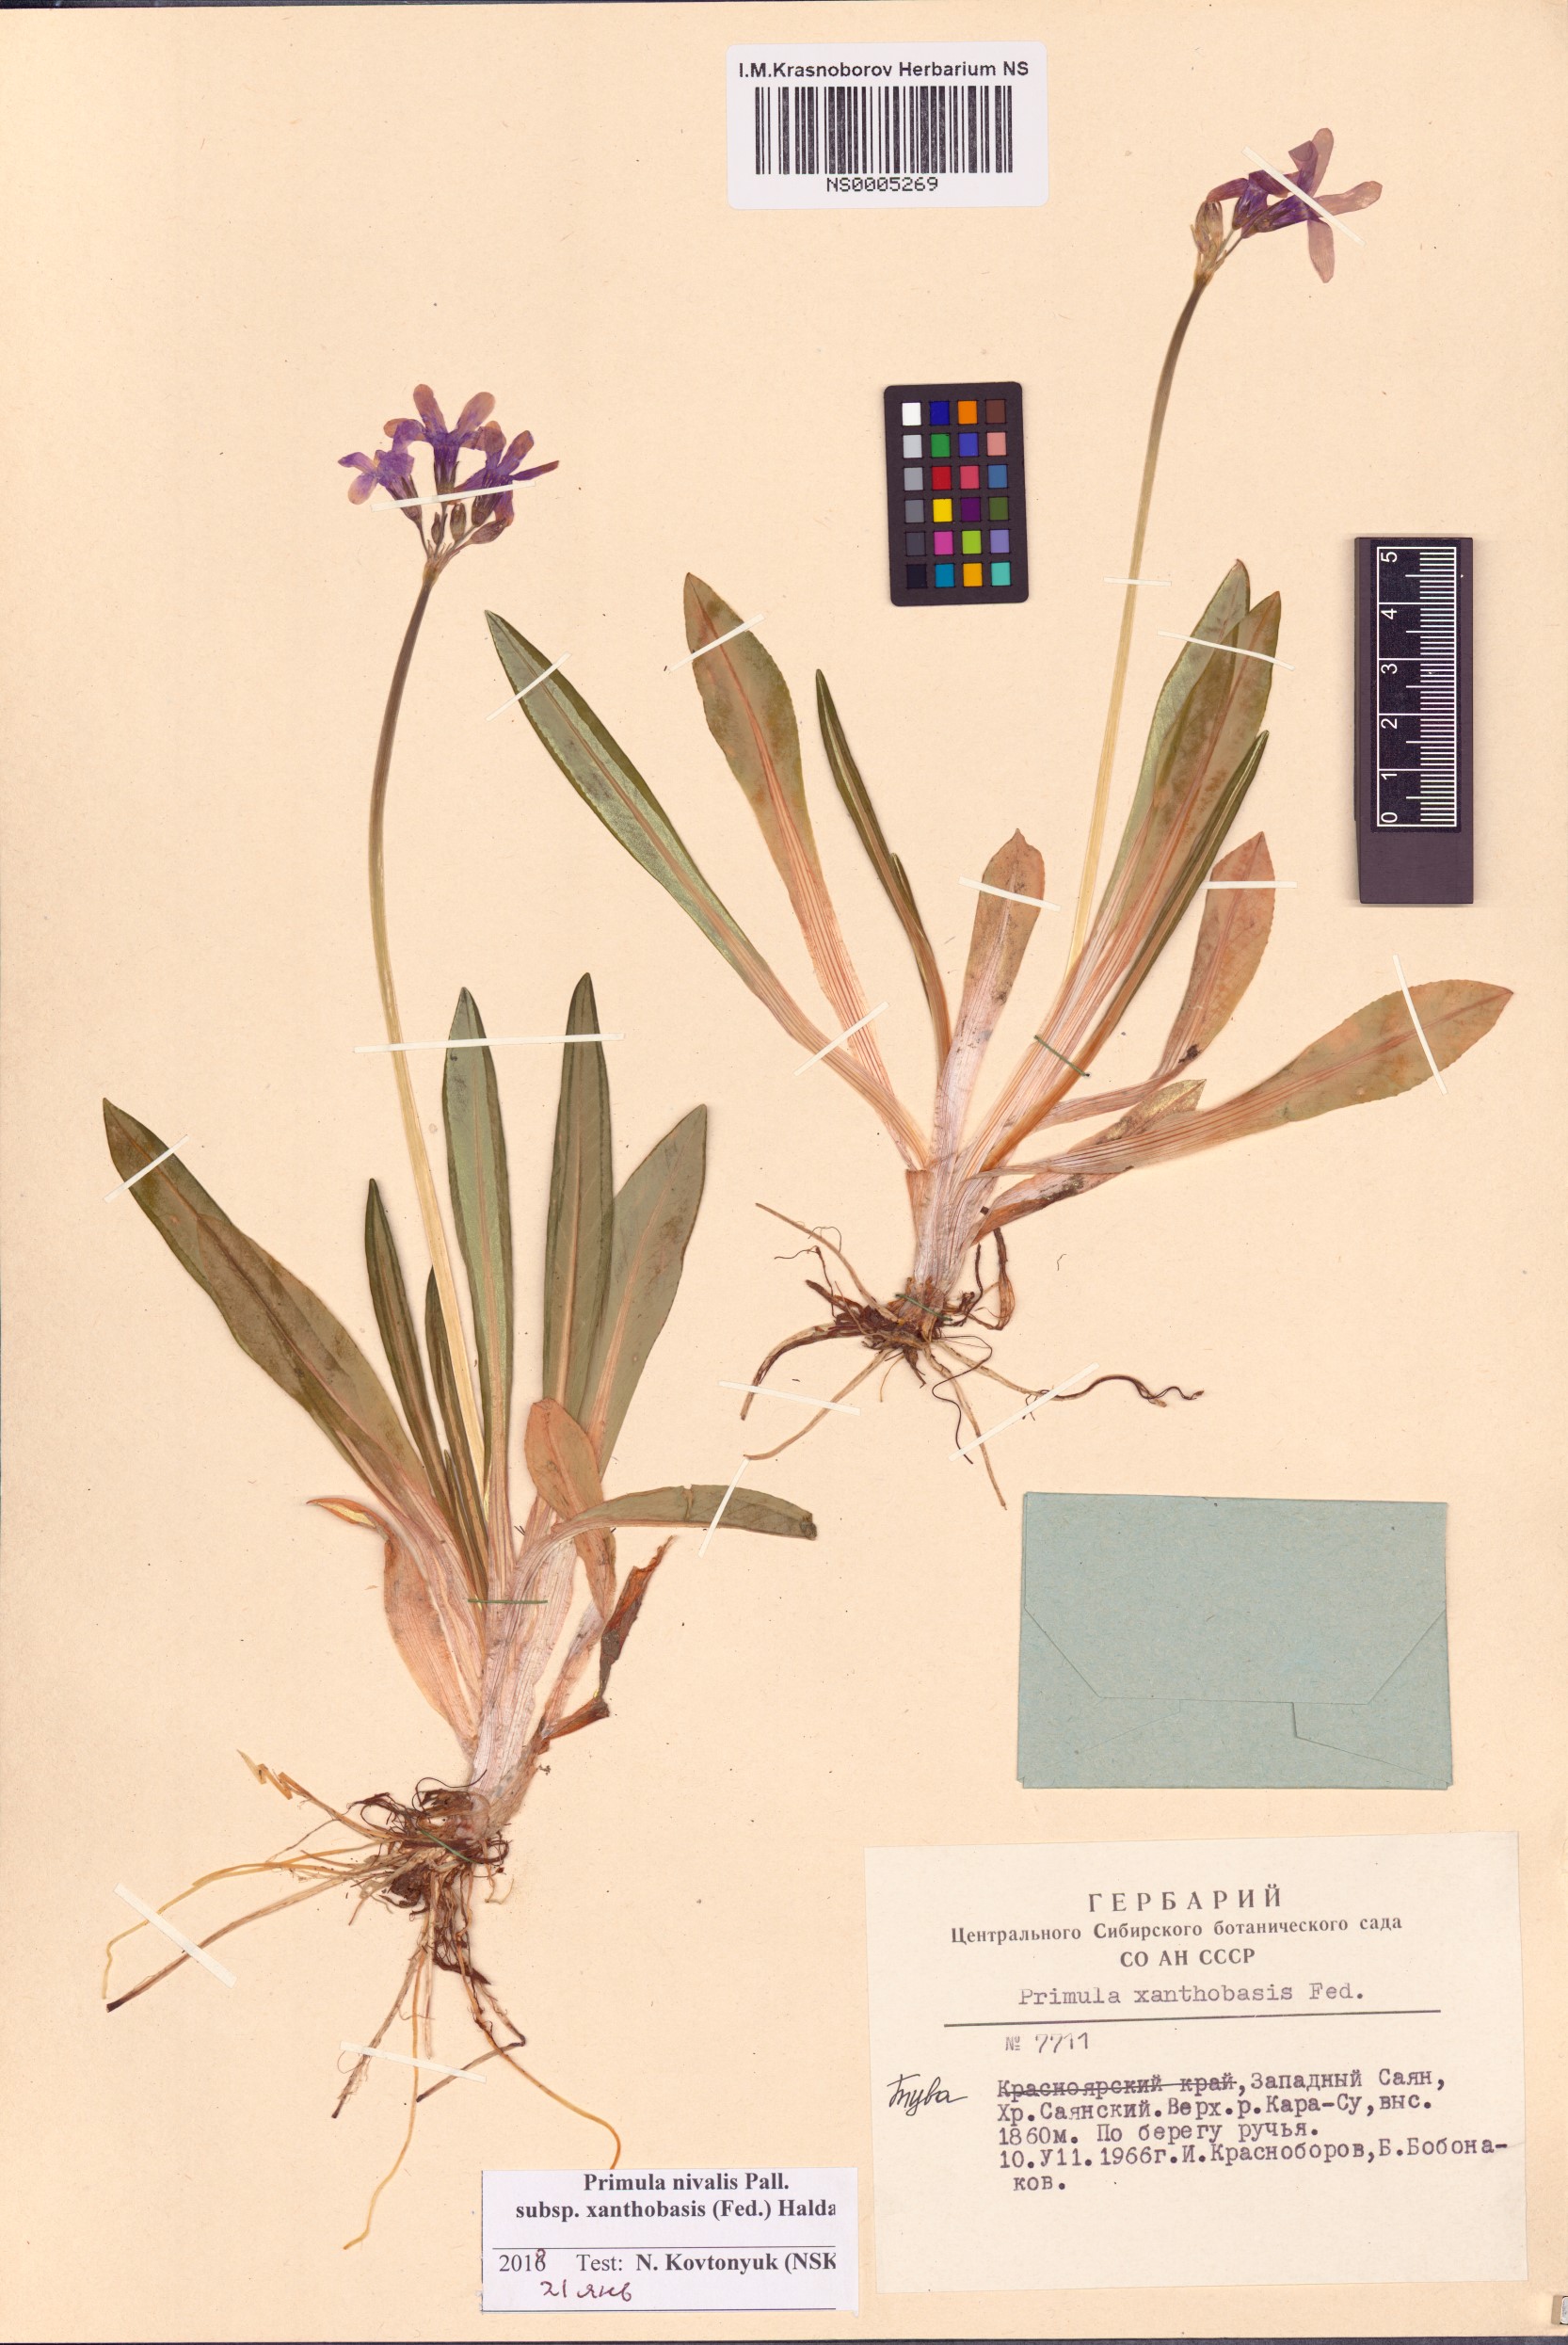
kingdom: Plantae
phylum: Tracheophyta
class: Magnoliopsida
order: Ericales
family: Primulaceae
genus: Primula
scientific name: Primula nivalis
